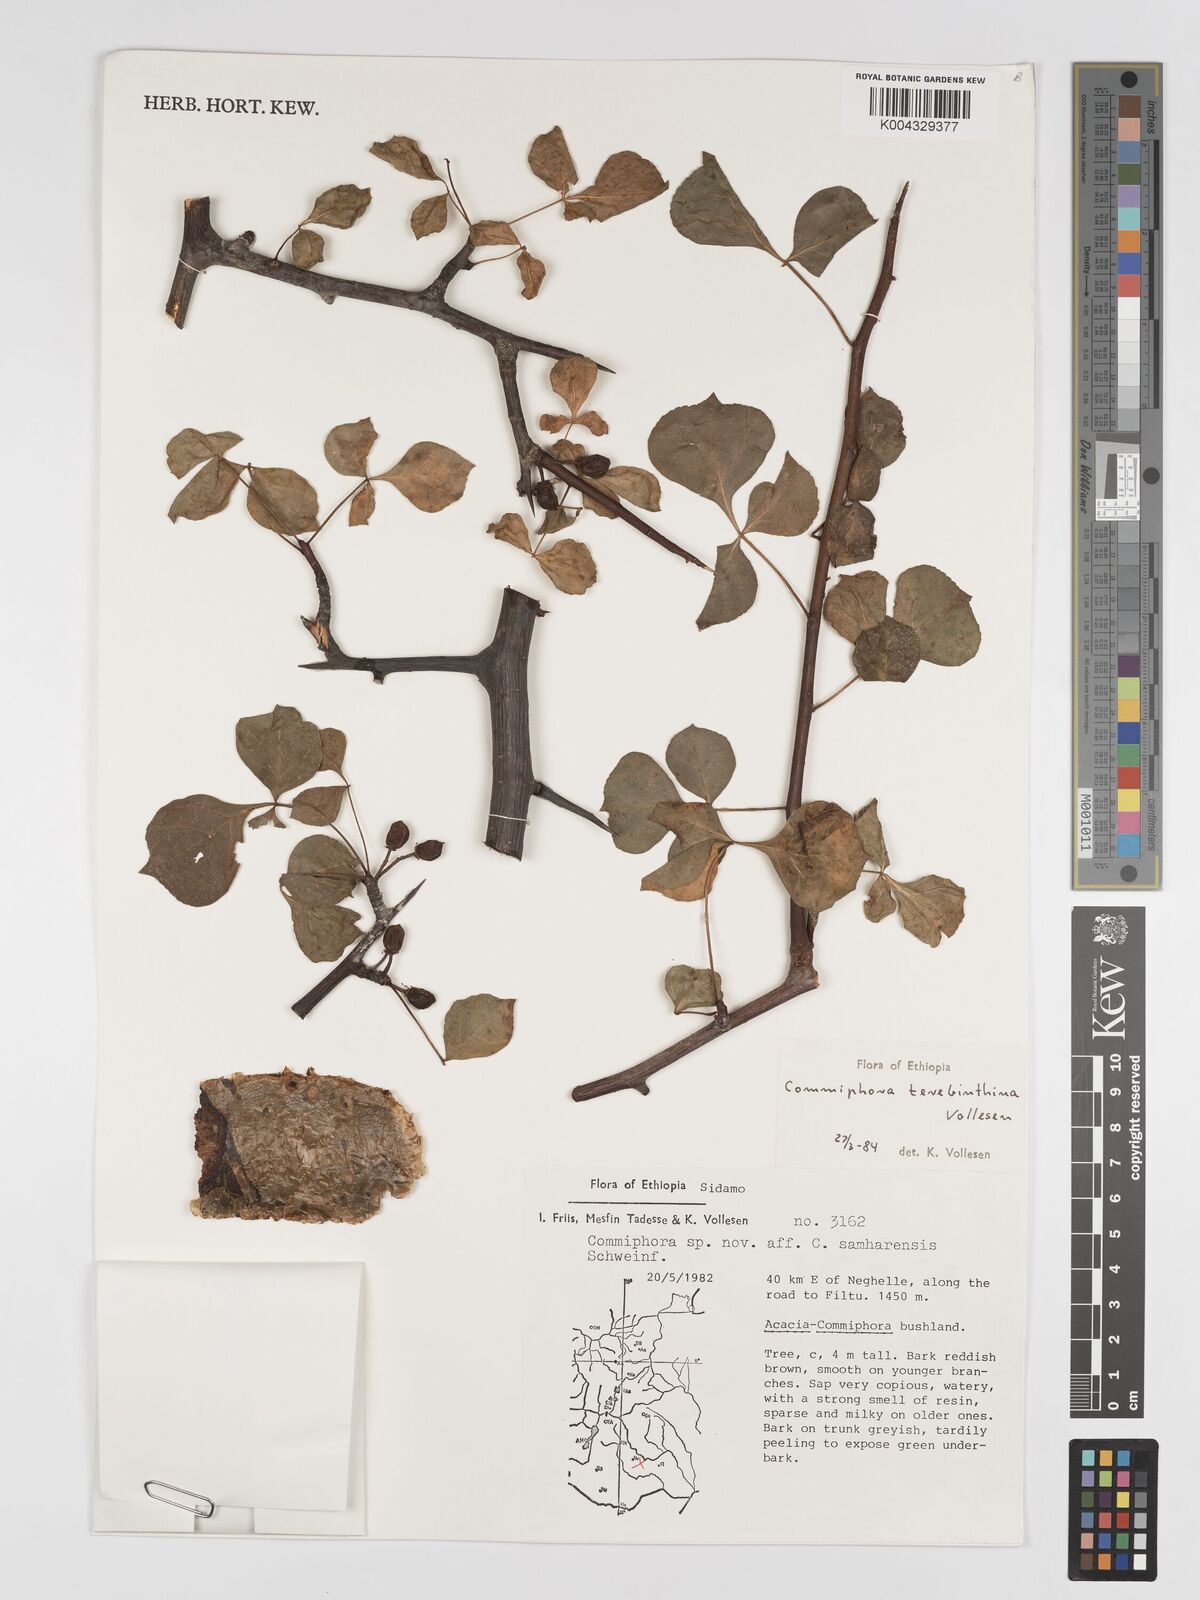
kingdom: Plantae
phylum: Tracheophyta
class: Magnoliopsida
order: Sapindales
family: Burseraceae
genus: Commiphora
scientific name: Commiphora samharensis
